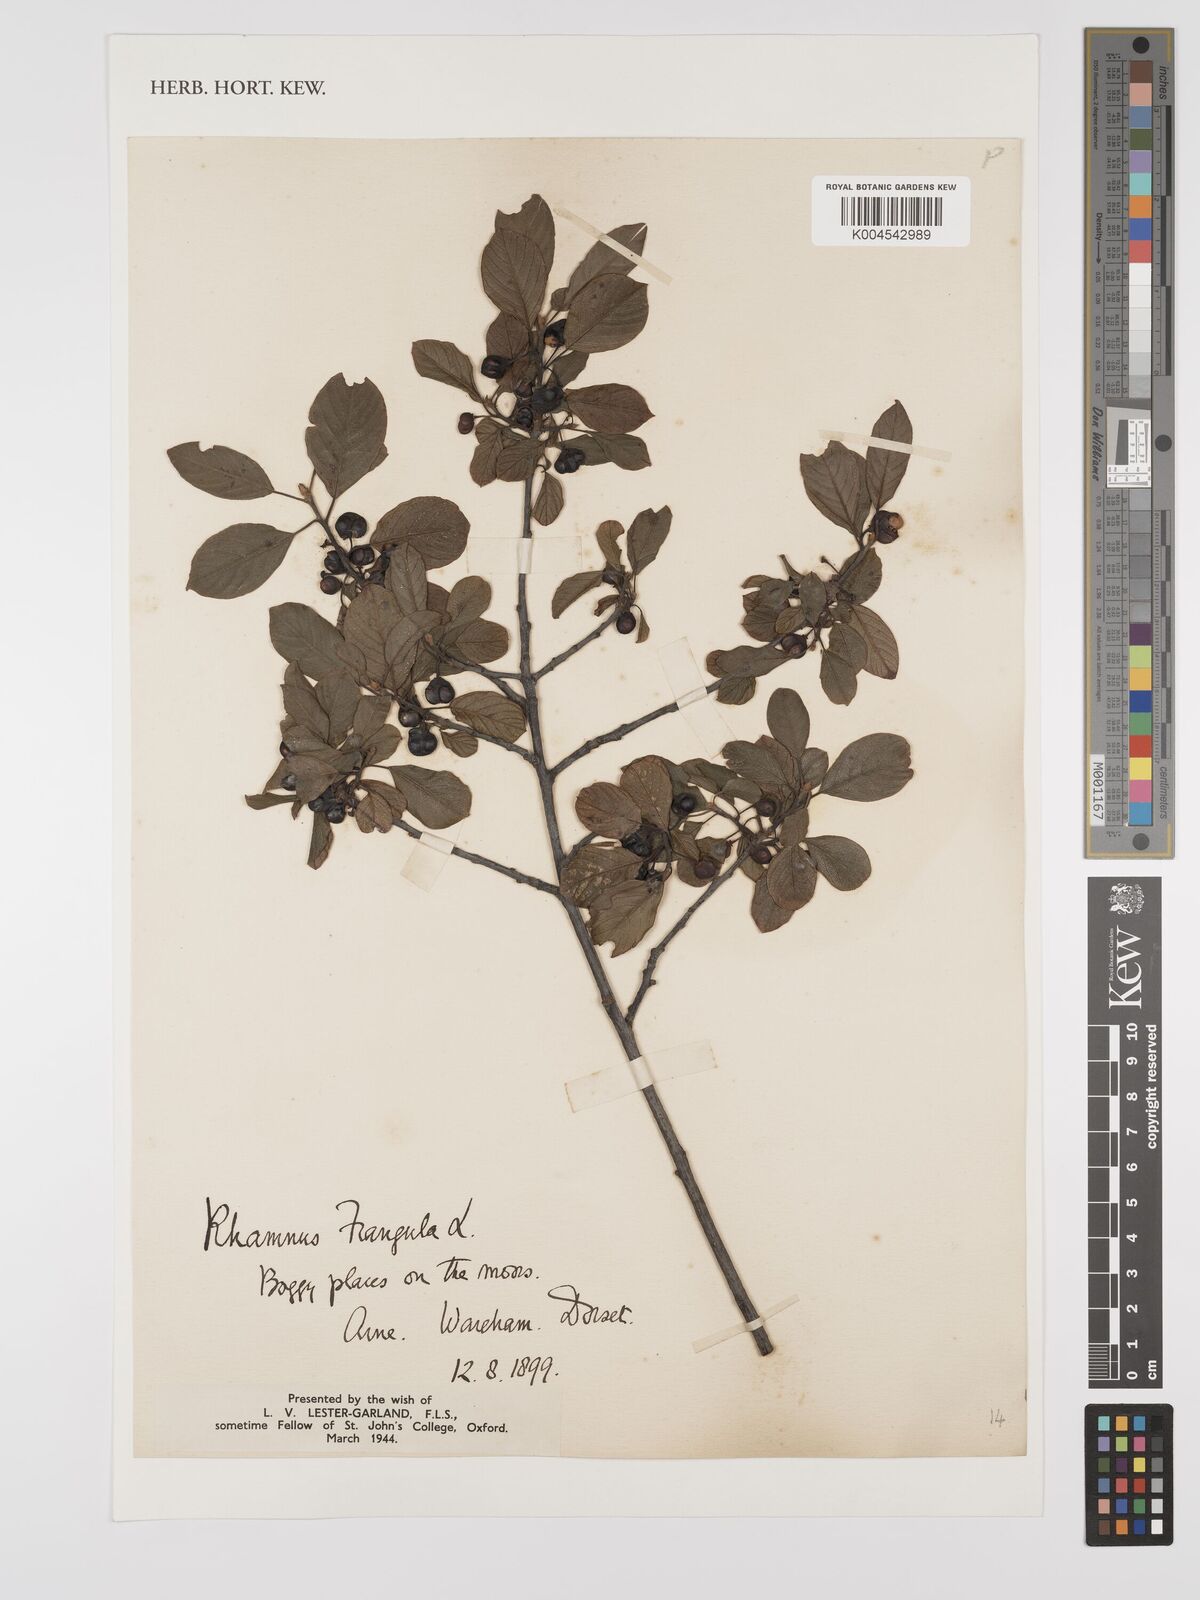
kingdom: Plantae
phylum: Tracheophyta
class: Magnoliopsida
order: Rosales
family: Rhamnaceae
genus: Frangula
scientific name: Frangula alnus
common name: Alder buckthorn
